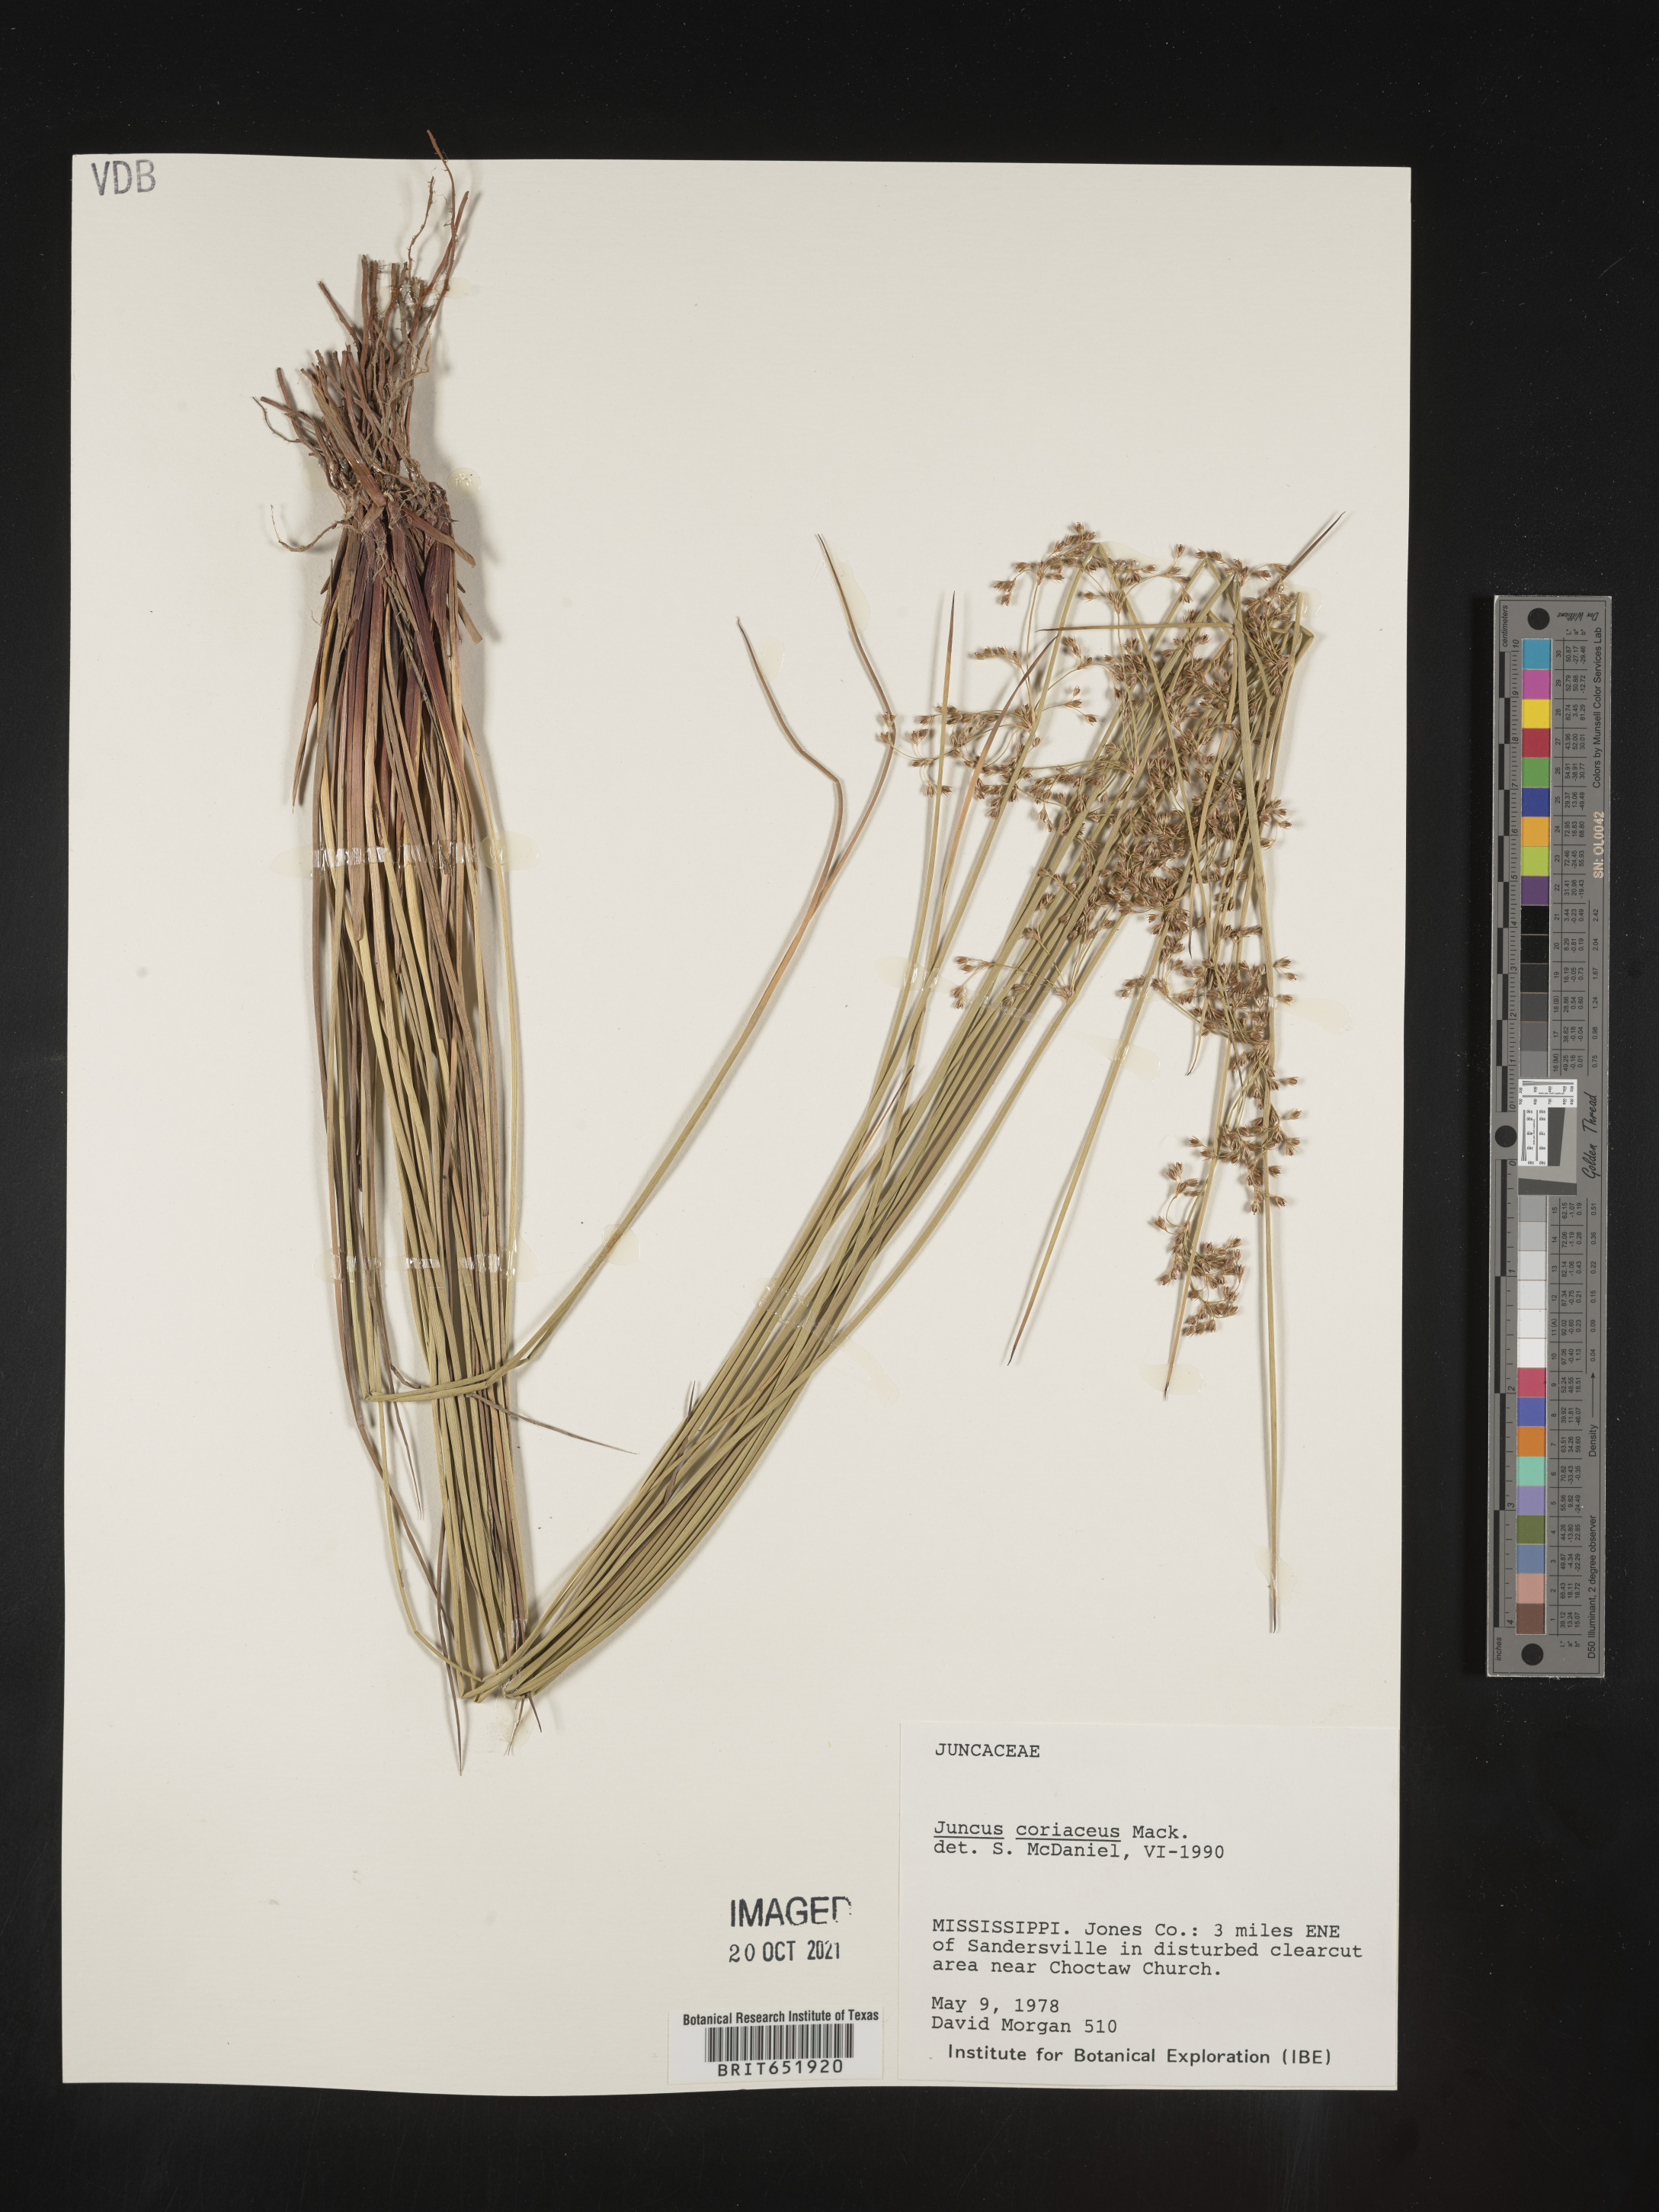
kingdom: Plantae
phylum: Tracheophyta
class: Liliopsida
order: Poales
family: Juncaceae
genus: Juncus
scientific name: Juncus coriaceus
